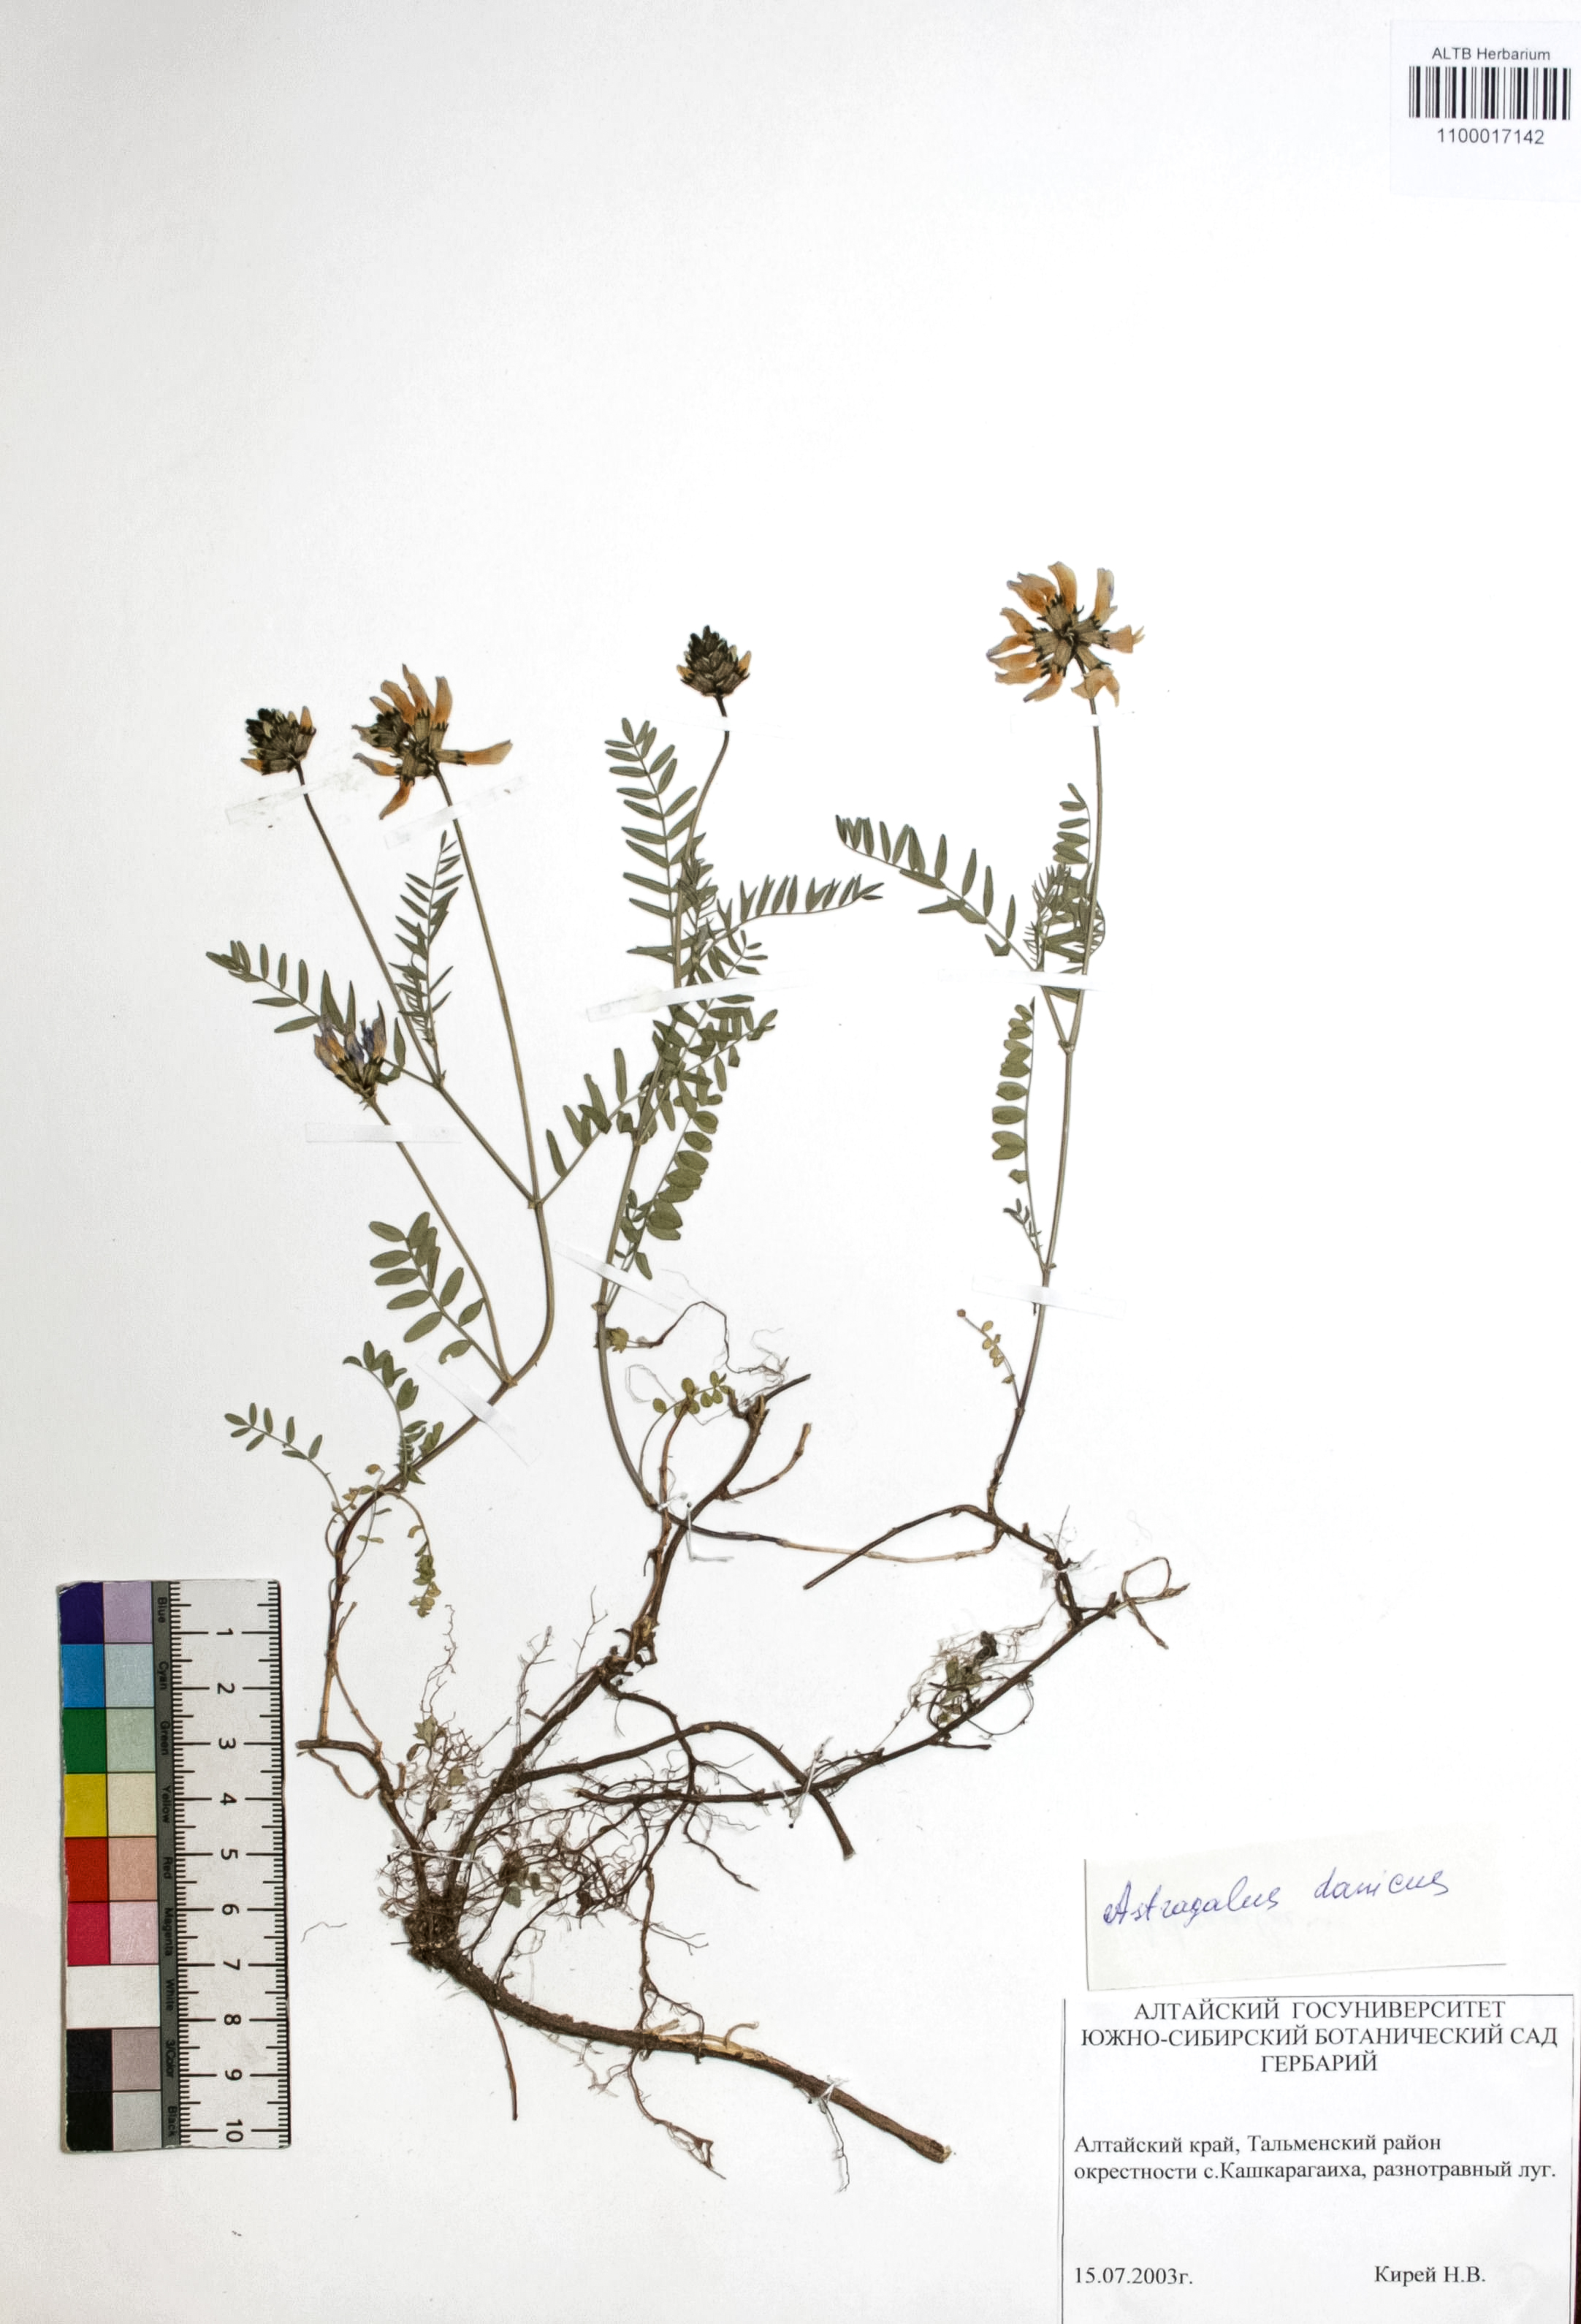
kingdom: Plantae
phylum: Tracheophyta
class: Magnoliopsida
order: Fabales
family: Fabaceae
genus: Astragalus
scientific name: Astragalus danicus
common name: Purple milk-vetch
